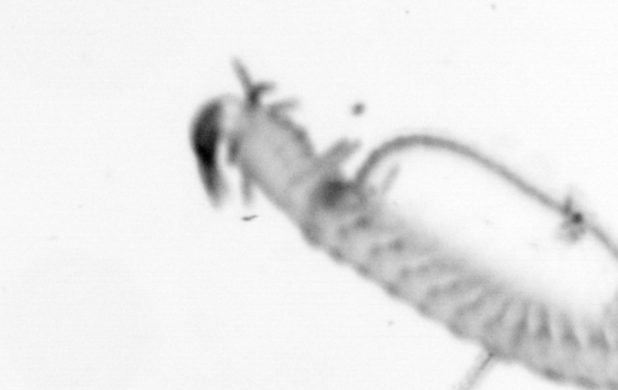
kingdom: Animalia
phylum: Annelida
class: Polychaeta
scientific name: Polychaeta
